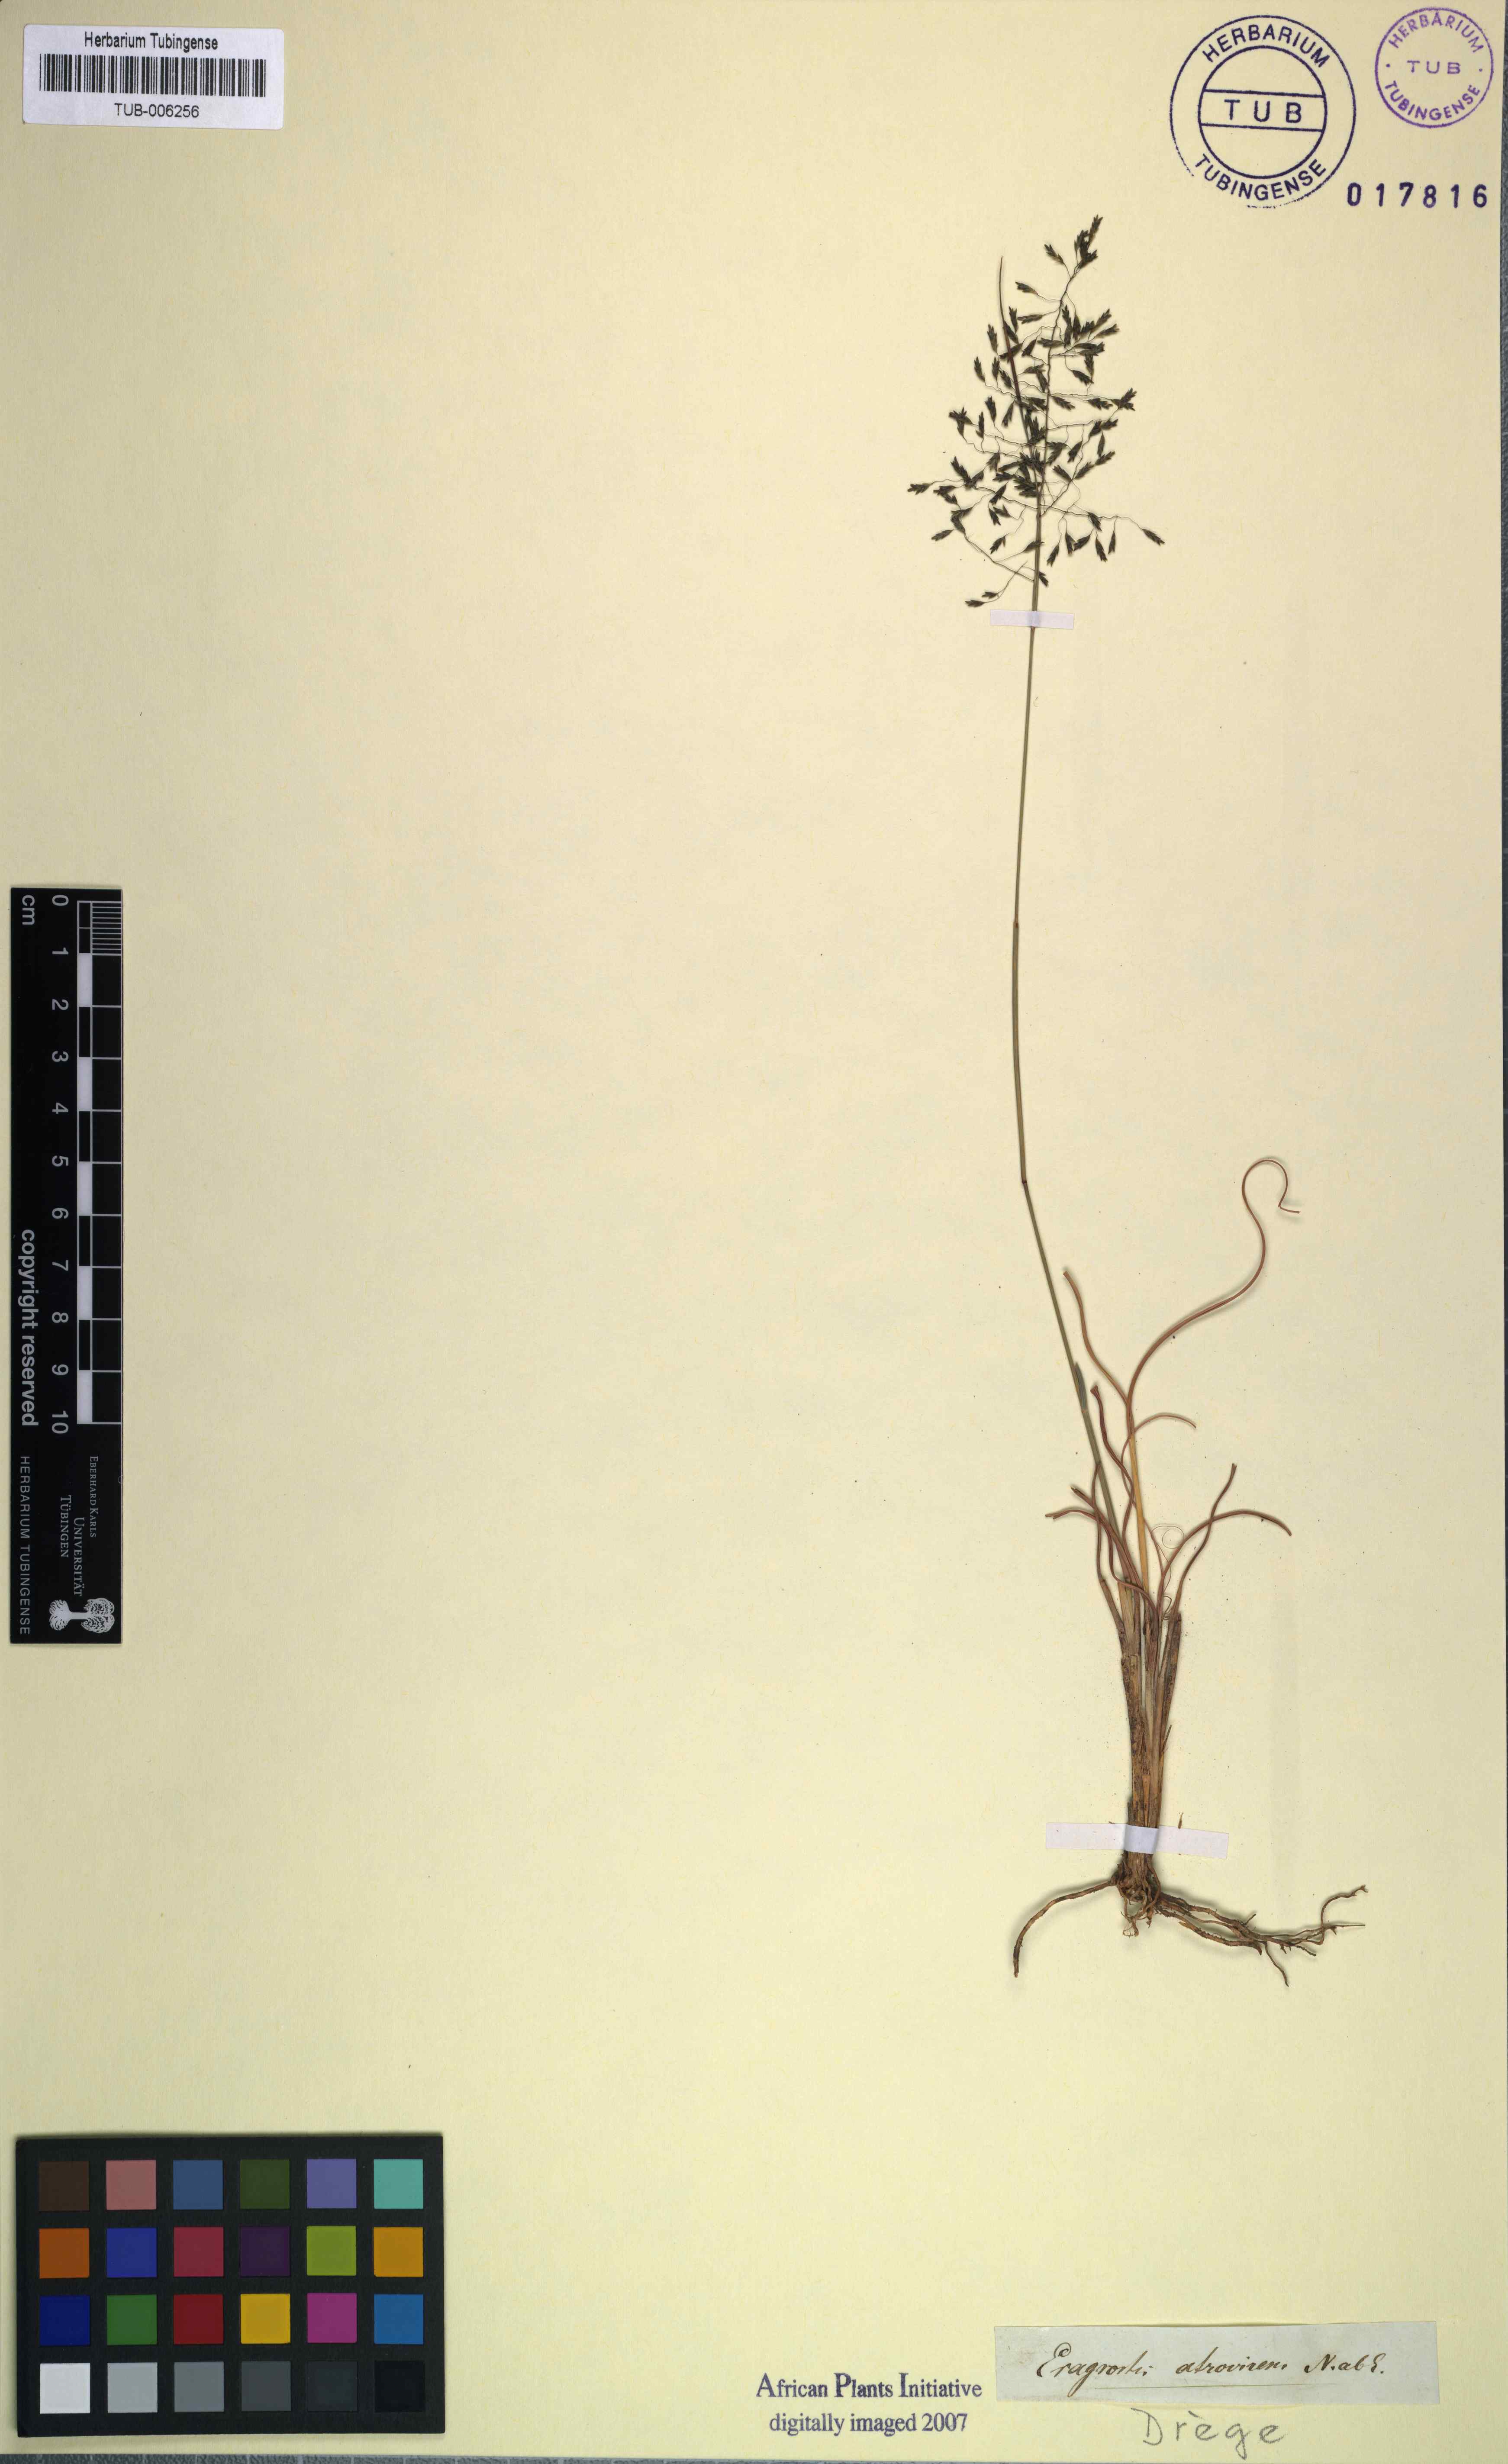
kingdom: Plantae
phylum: Tracheophyta
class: Liliopsida
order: Poales
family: Poaceae
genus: Eragrostis
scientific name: Eragrostis atrovirens
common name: Thalia lovegrass
